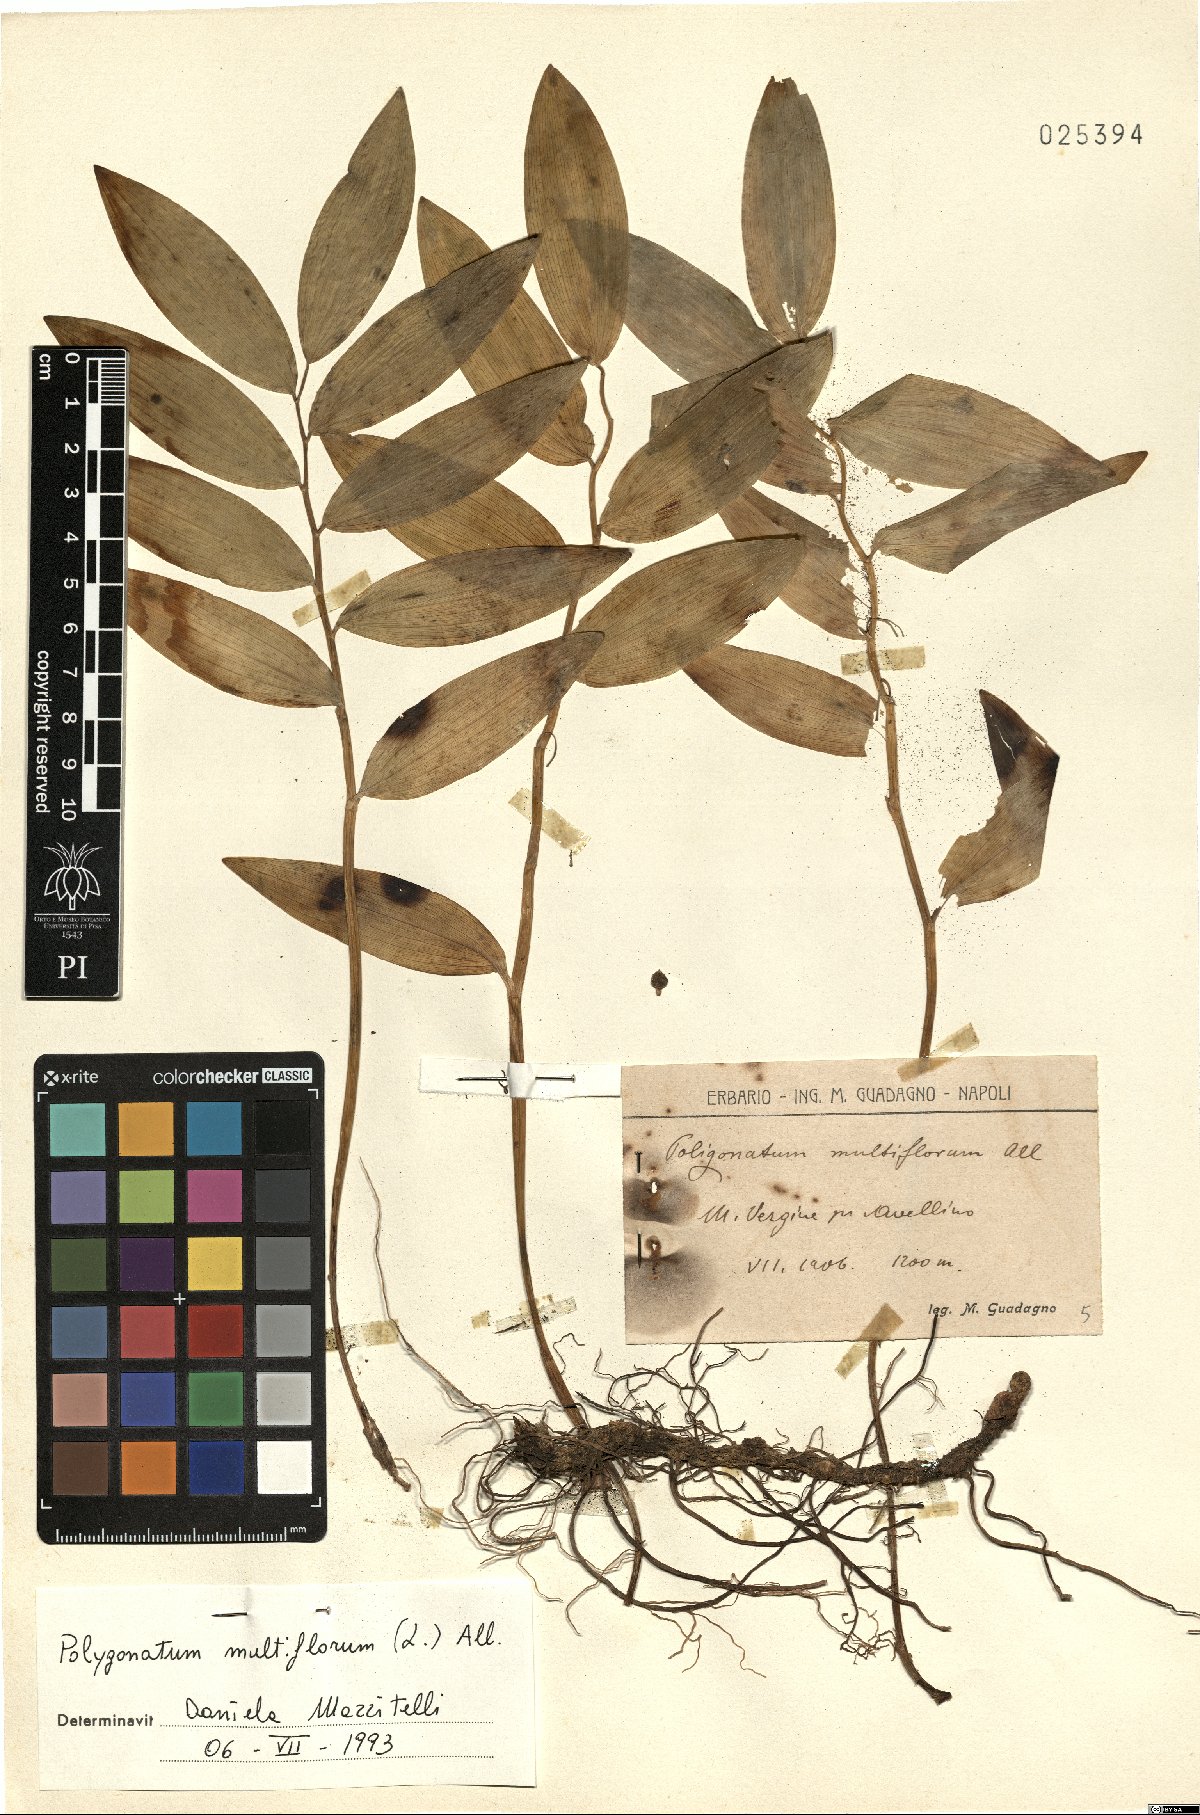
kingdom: Plantae
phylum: Tracheophyta
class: Liliopsida
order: Asparagales
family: Asparagaceae
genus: Polygonatum
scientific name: Polygonatum multiflorum
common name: Solomon's-seal
